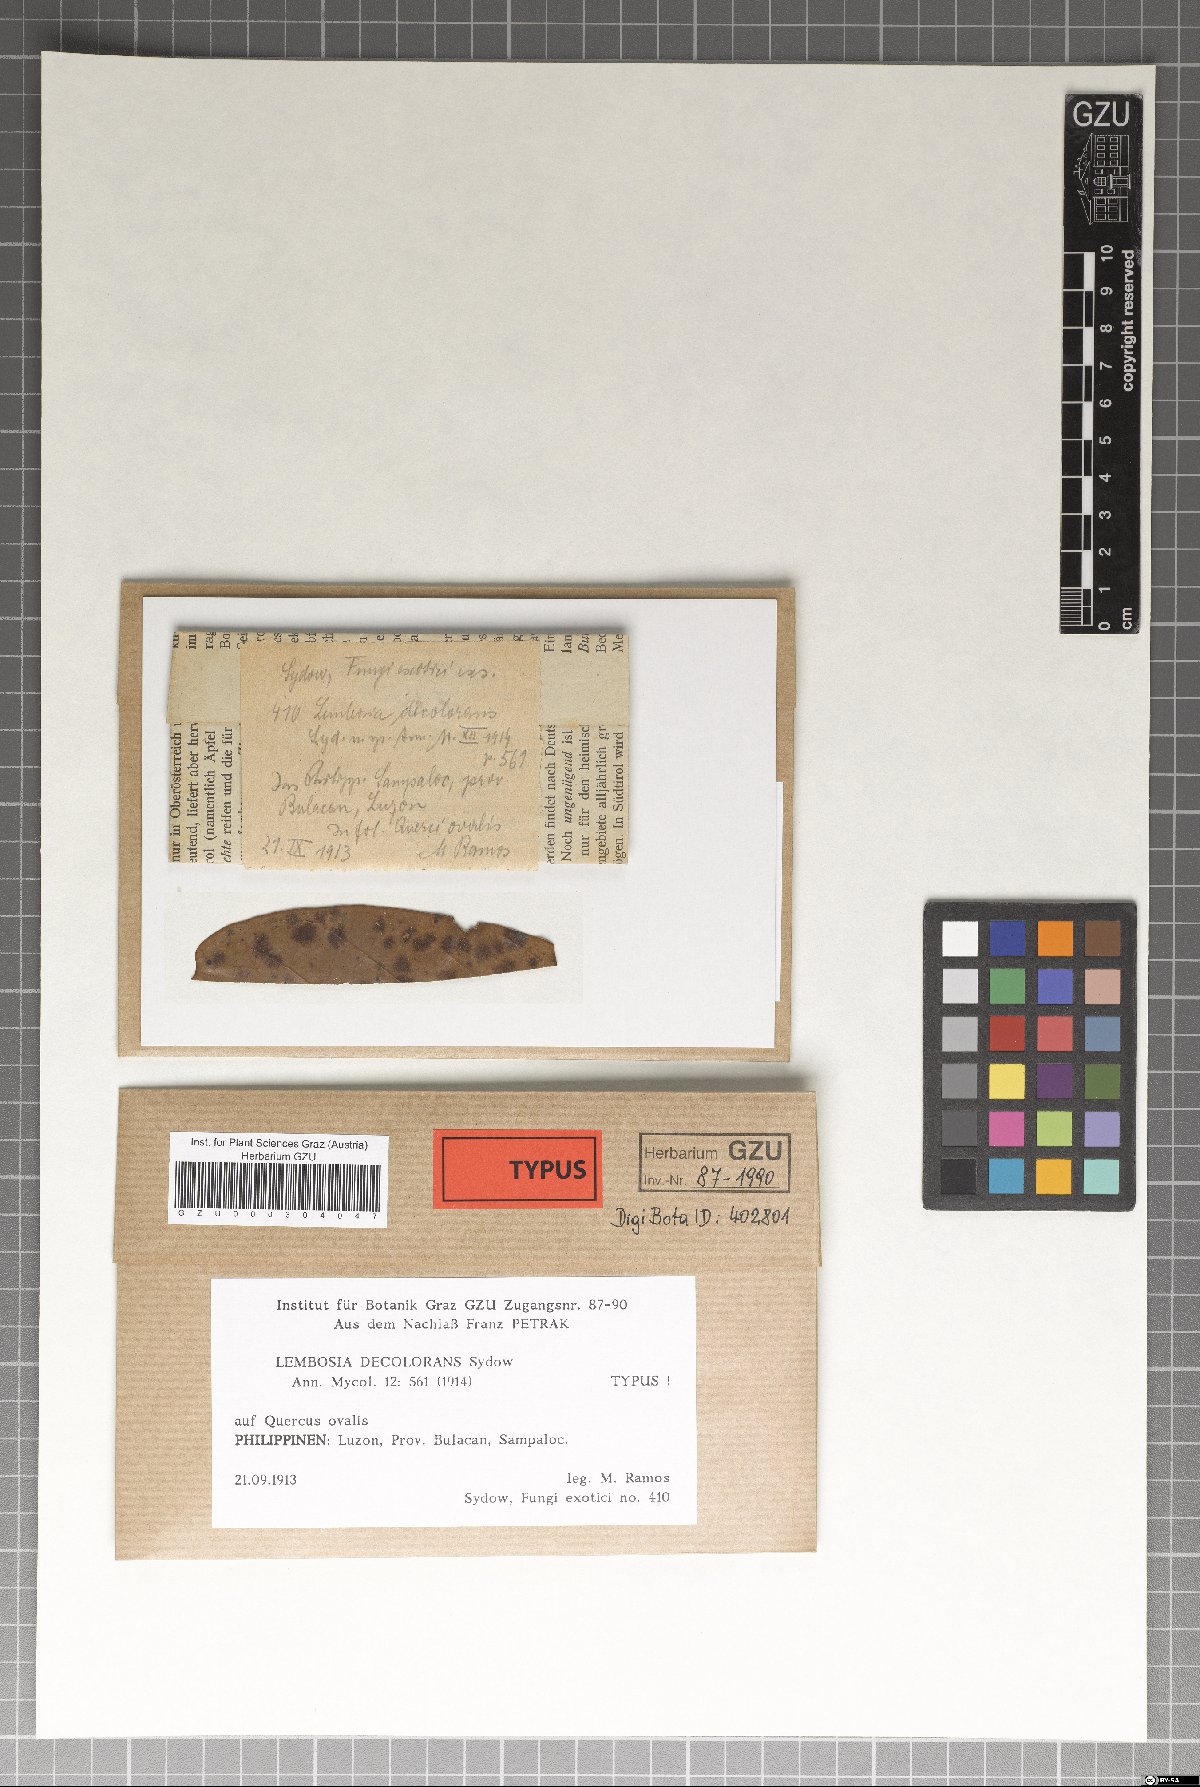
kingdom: Fungi
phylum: Ascomycota
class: Dothideomycetes
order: Asterinales
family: Asterinaceae
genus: Lembosia
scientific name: Lembosia decolorans
